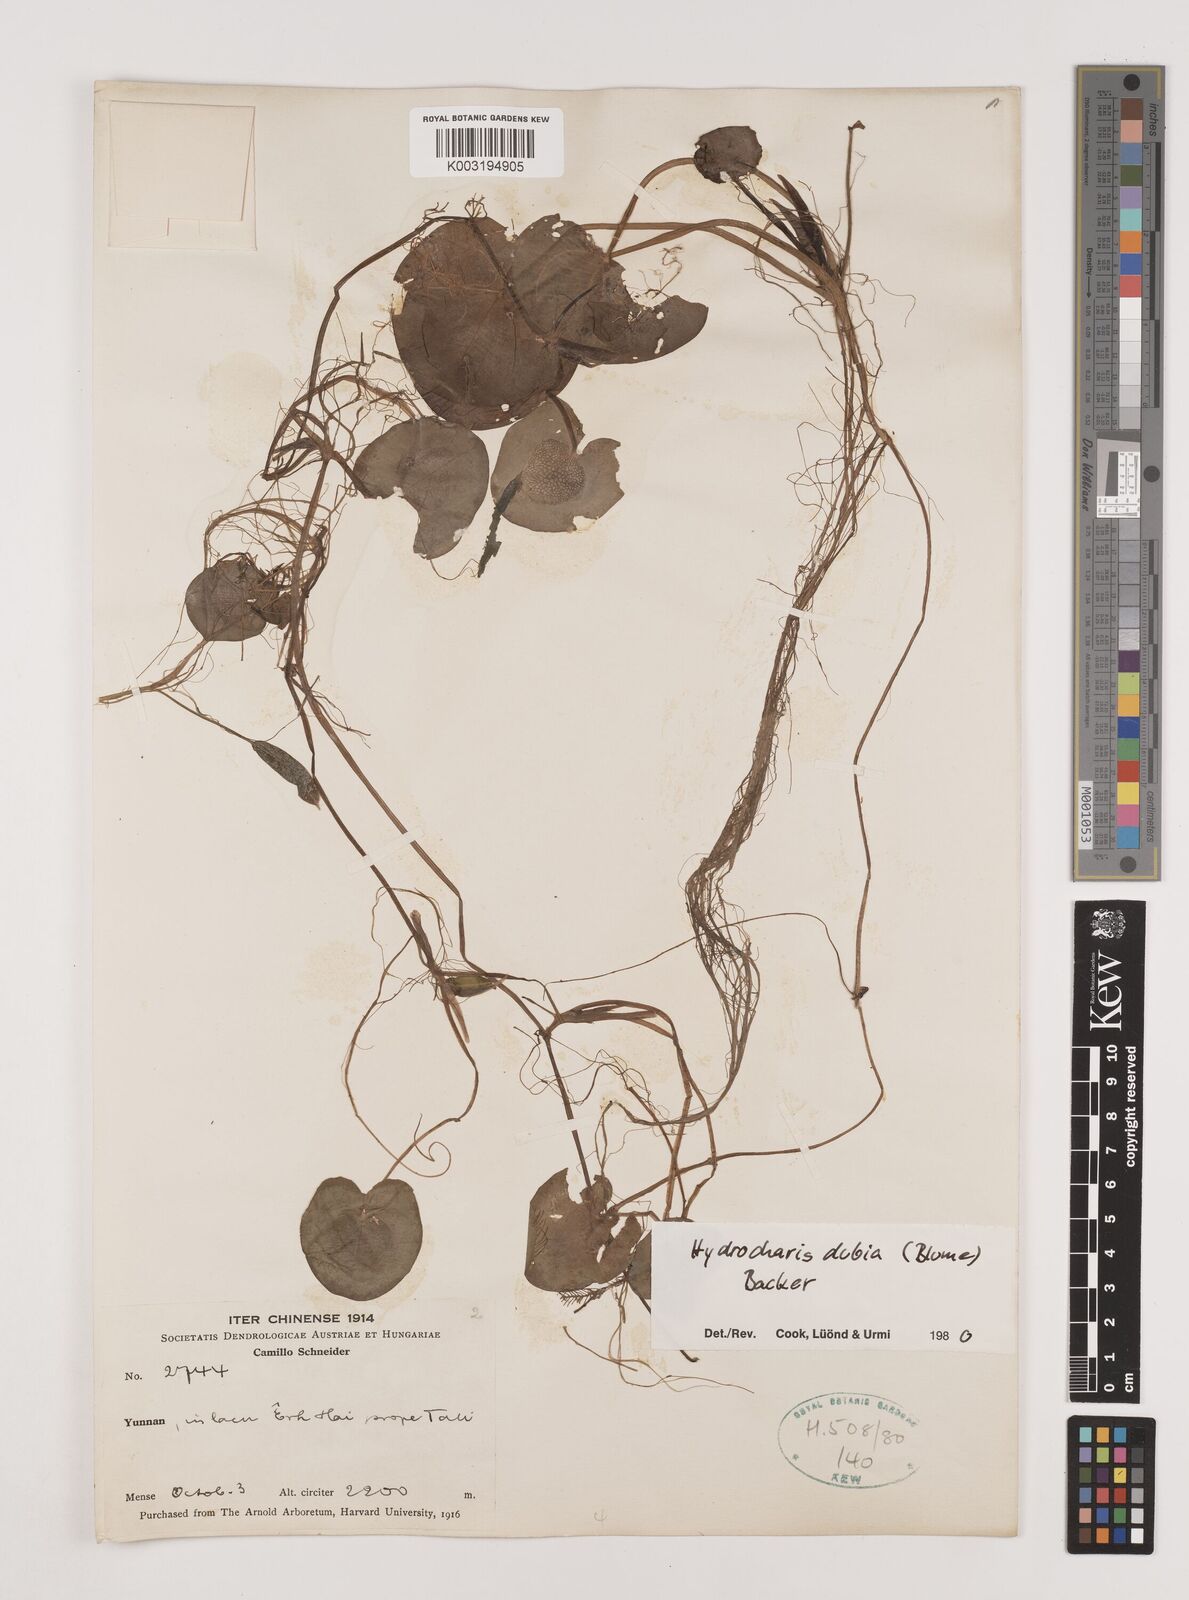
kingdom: Plantae
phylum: Tracheophyta
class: Liliopsida
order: Alismatales
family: Hydrocharitaceae
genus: Hydrocharis
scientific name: Hydrocharis dubia
